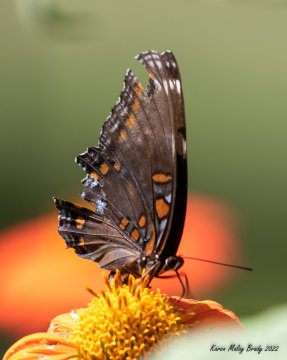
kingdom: Animalia
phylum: Arthropoda
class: Insecta
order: Lepidoptera
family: Nymphalidae
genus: Limenitis
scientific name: Limenitis arthemis
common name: Red-spotted Admiral
